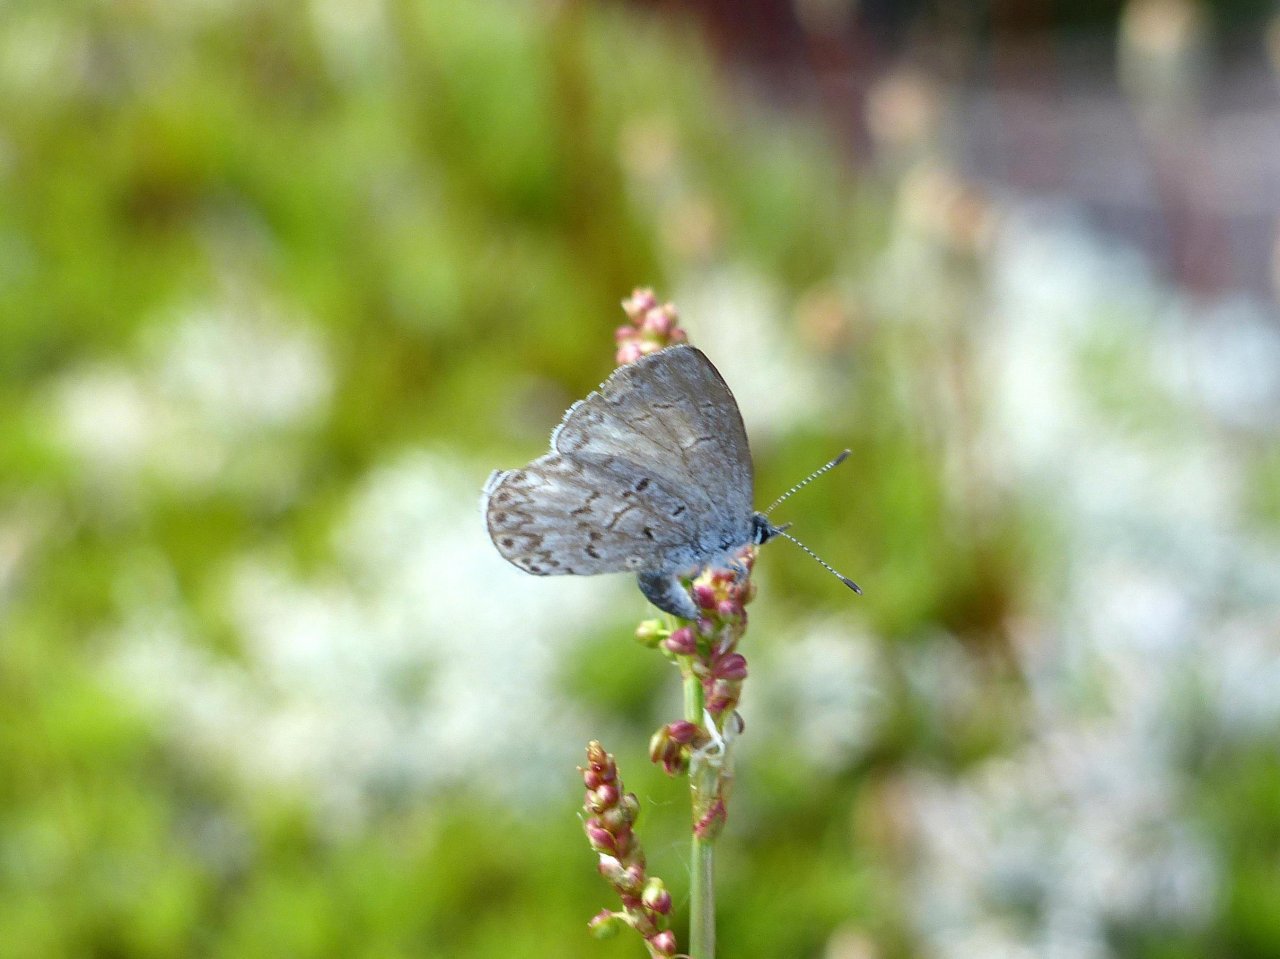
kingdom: Animalia
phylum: Arthropoda
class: Insecta
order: Lepidoptera
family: Lycaenidae
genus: Celastrina
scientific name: Celastrina lucia
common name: Northern Spring Azure
